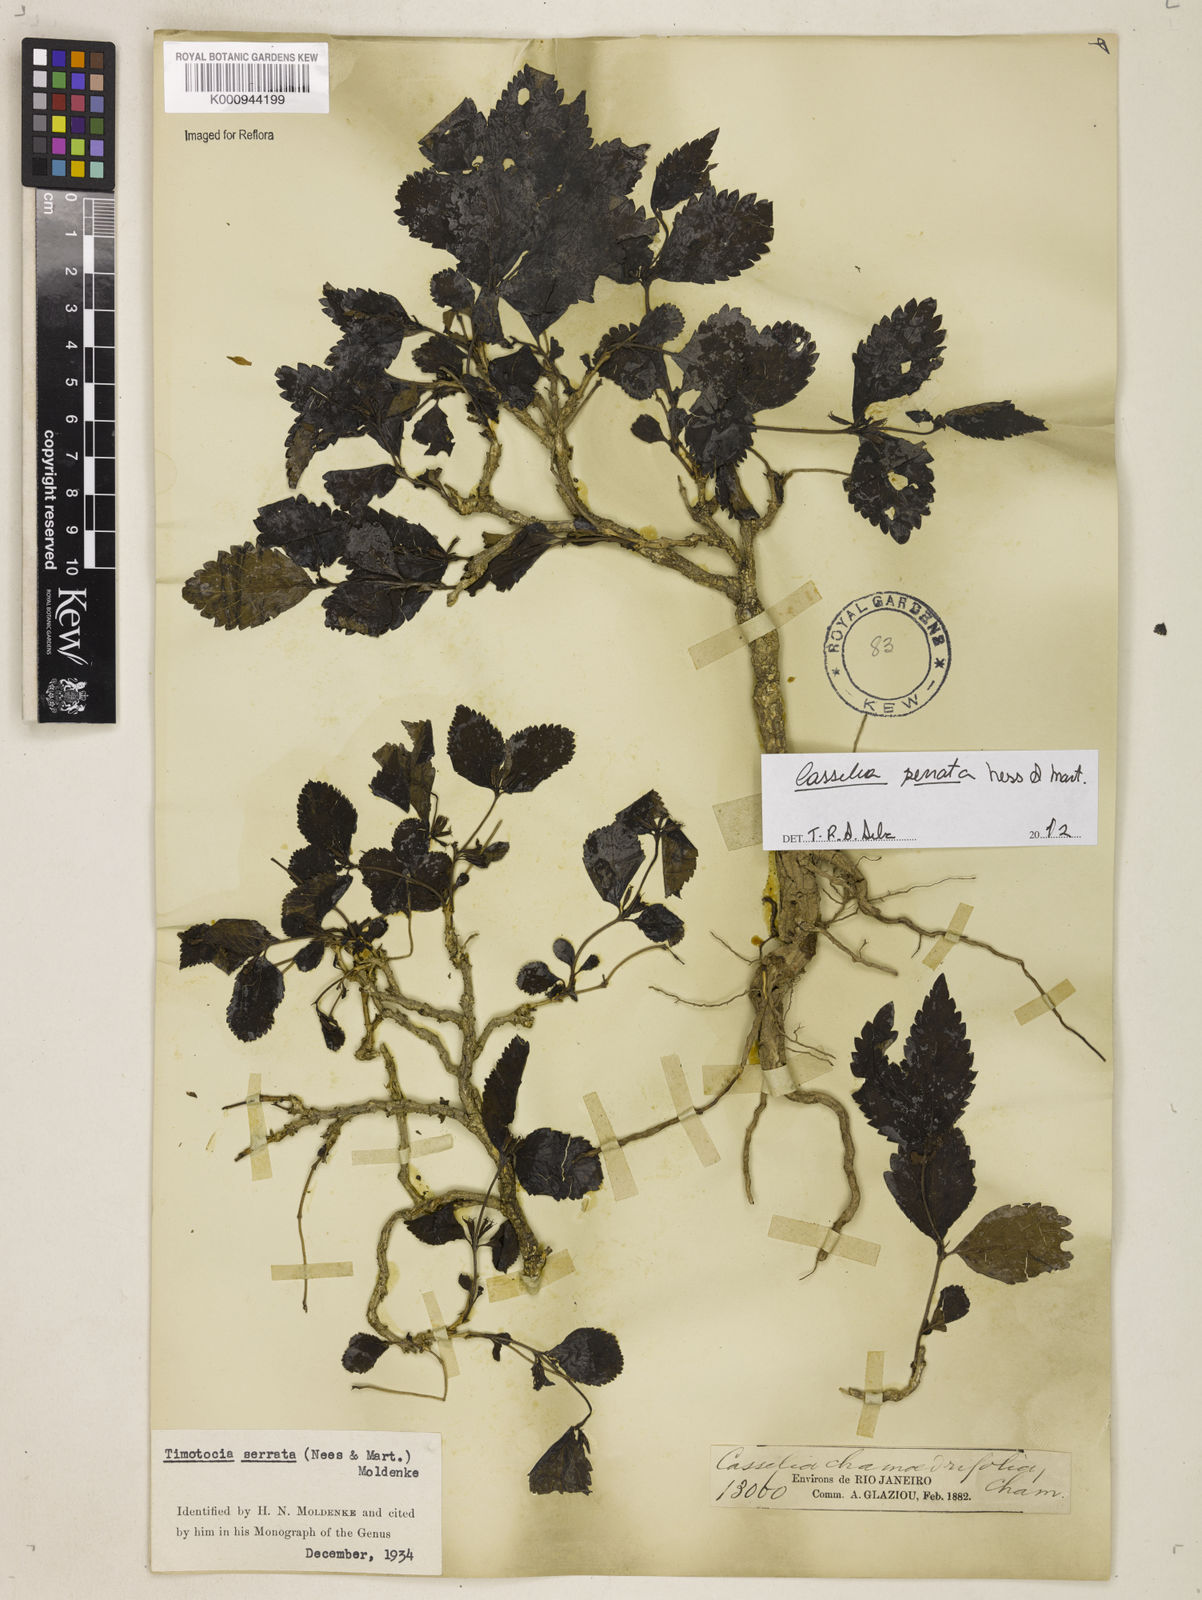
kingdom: Plantae
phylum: Tracheophyta
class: Magnoliopsida
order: Lamiales
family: Verbenaceae
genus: Casselia
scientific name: Casselia serrata
